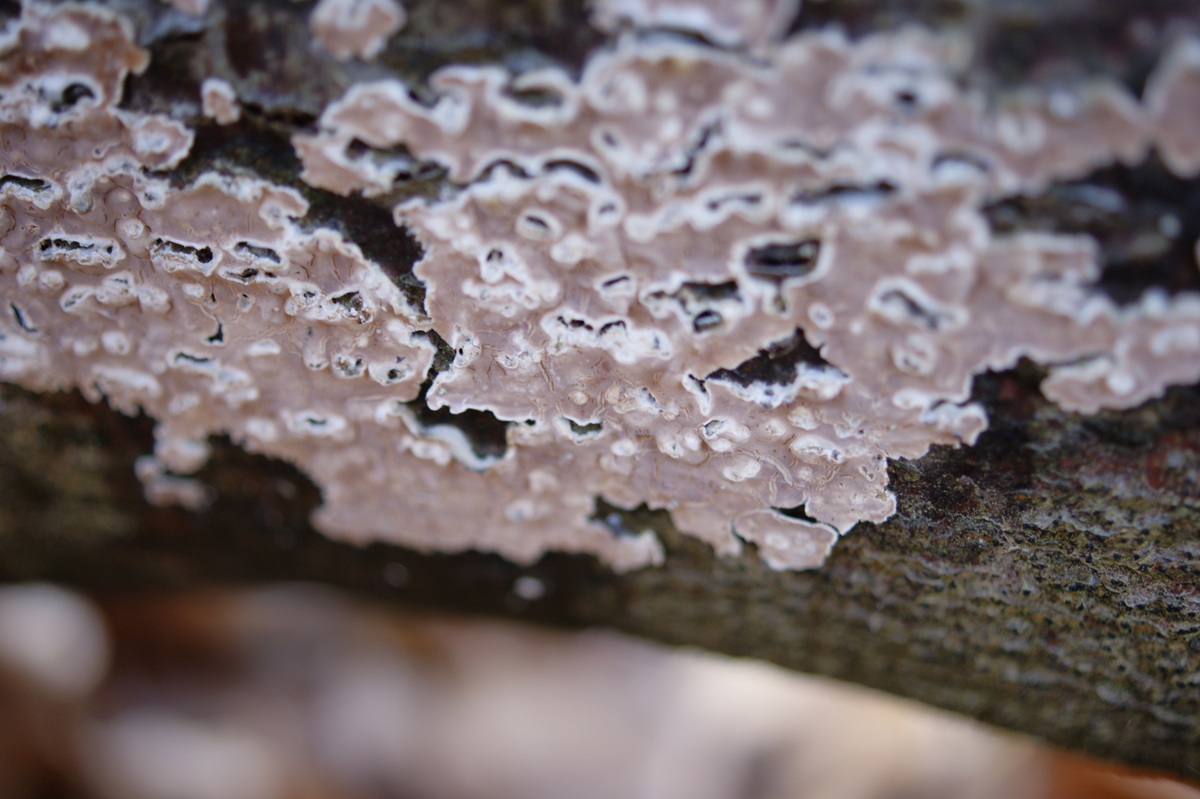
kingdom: Fungi
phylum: Basidiomycota
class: Agaricomycetes
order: Agaricales
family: Physalacriaceae
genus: Cylindrobasidium
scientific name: Cylindrobasidium evolvens
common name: sprækkehinde
